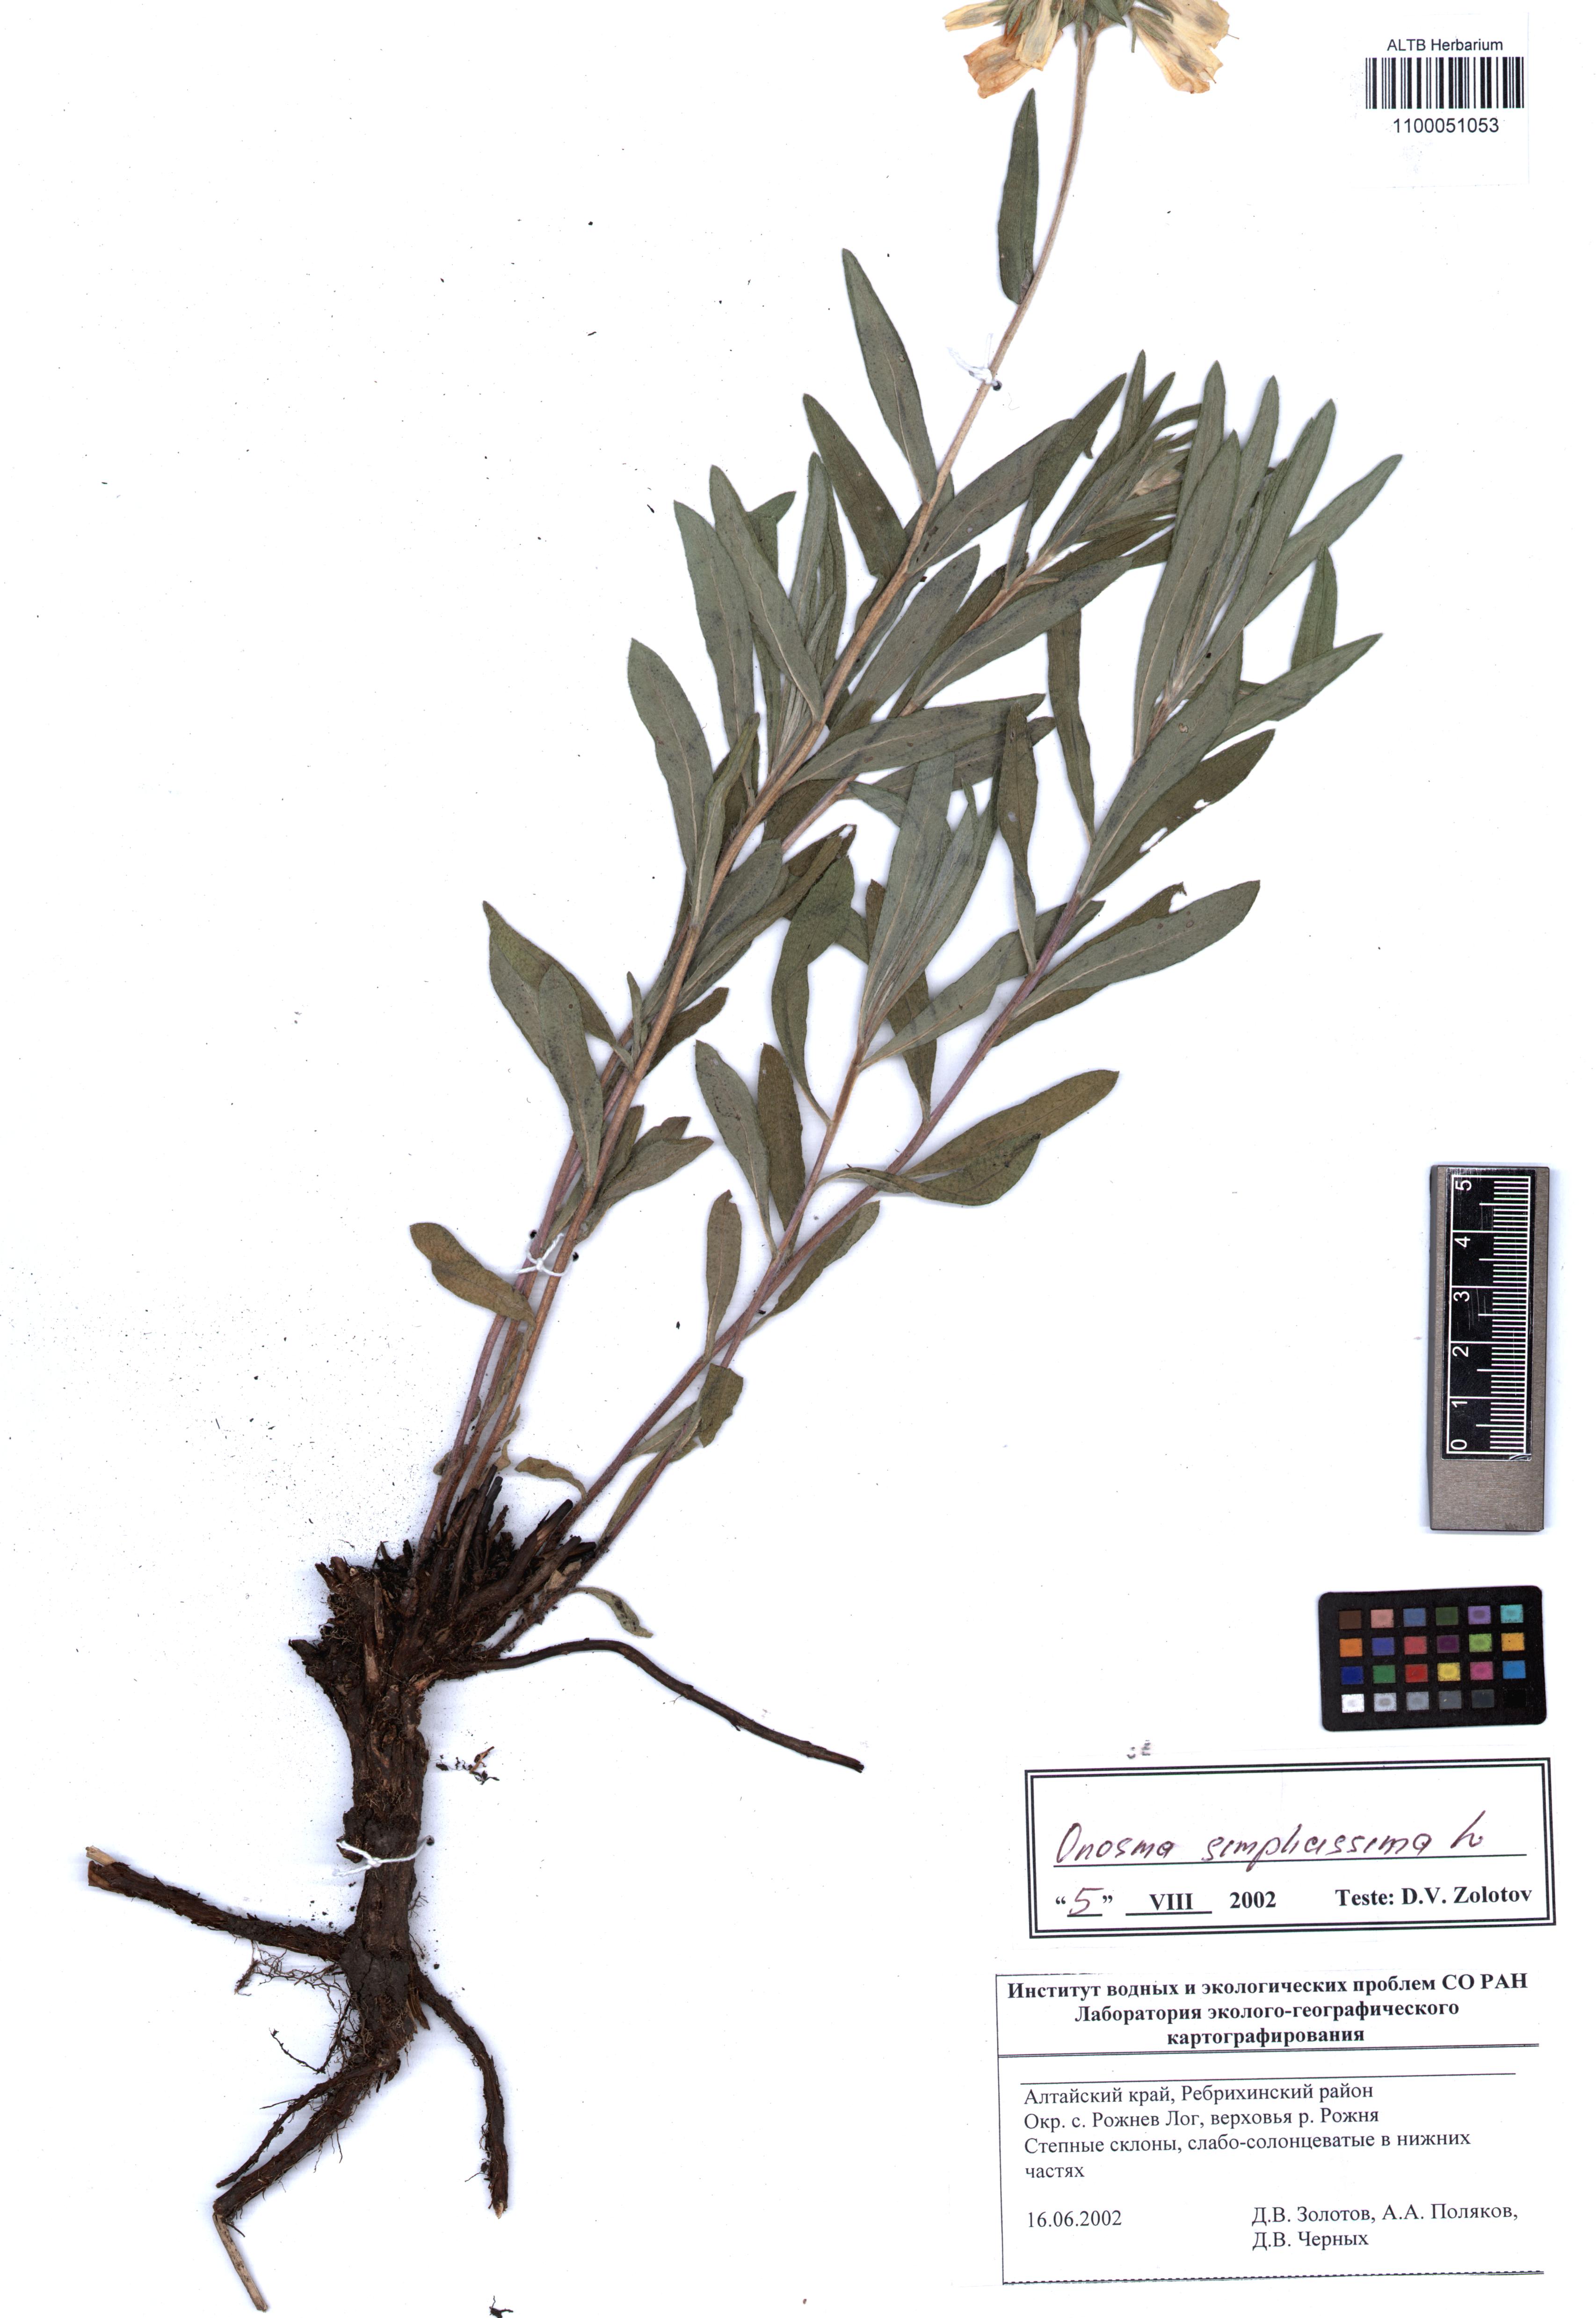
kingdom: Plantae
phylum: Tracheophyta
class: Magnoliopsida
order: Boraginales
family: Boraginaceae
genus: Onosma
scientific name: Onosma simplicissima
